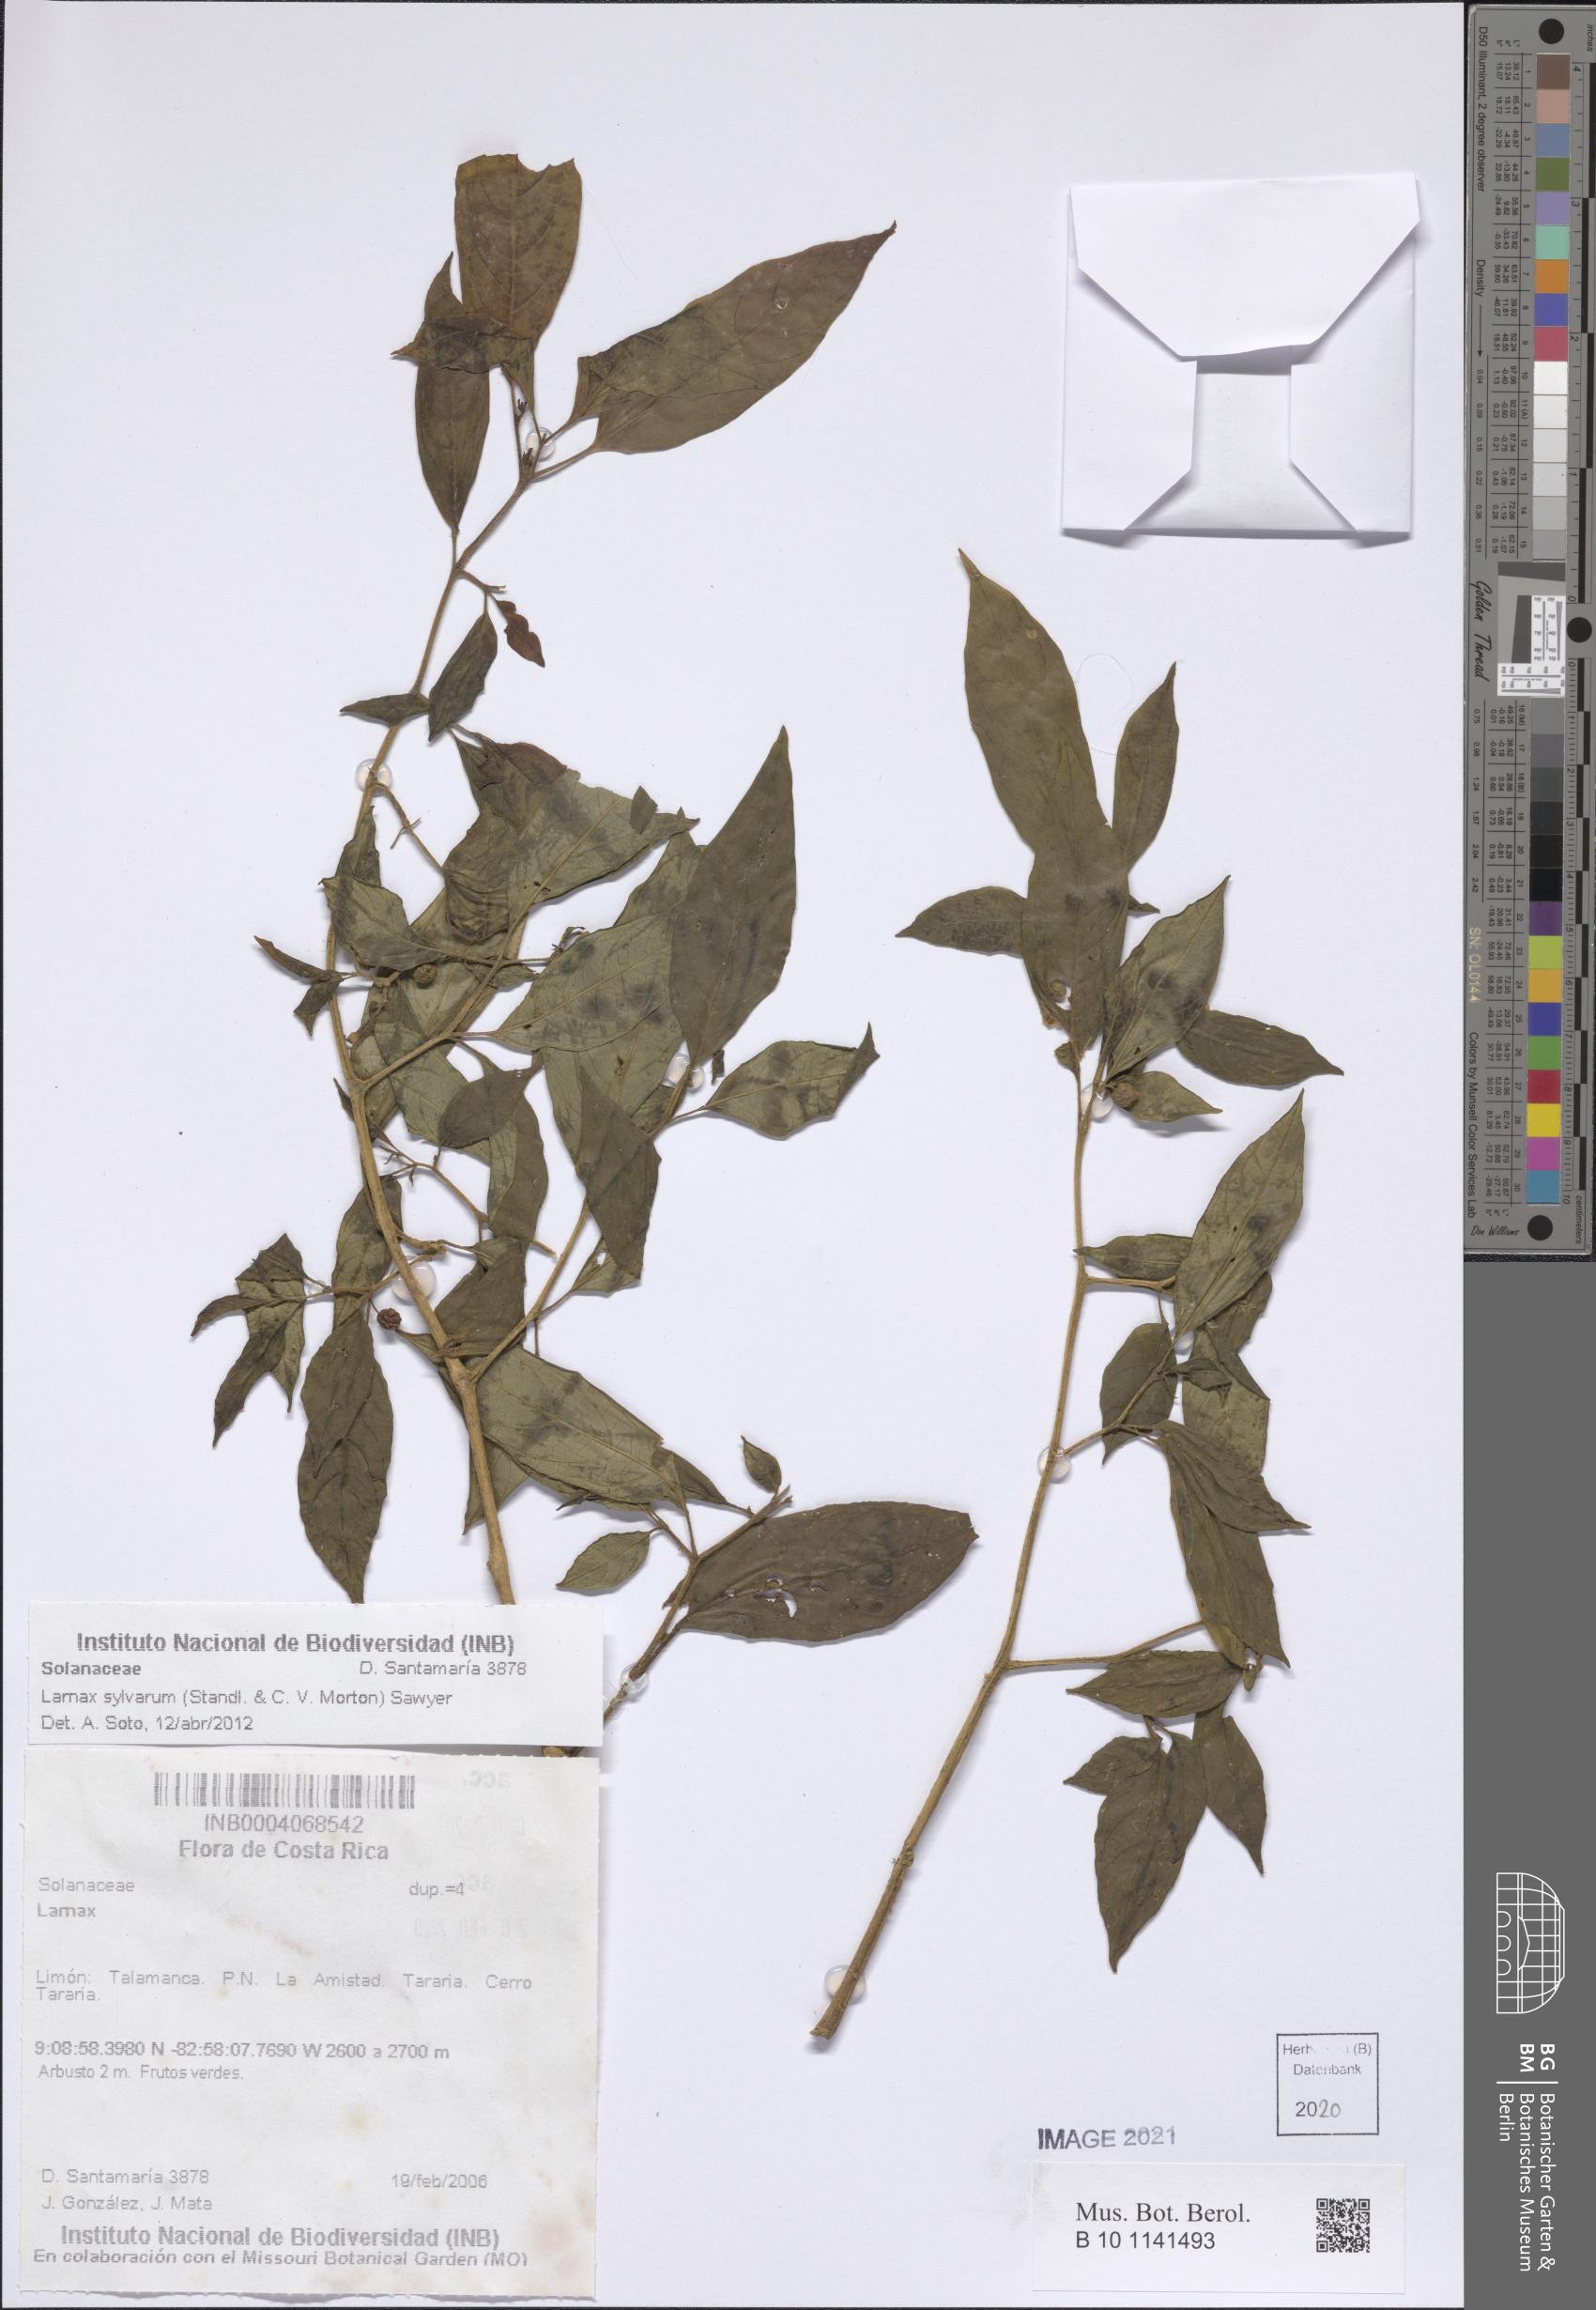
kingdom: Plantae
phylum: Tracheophyta
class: Magnoliopsida
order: Solanales
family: Solanaceae
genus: Deprea
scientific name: Deprea sylvarum
